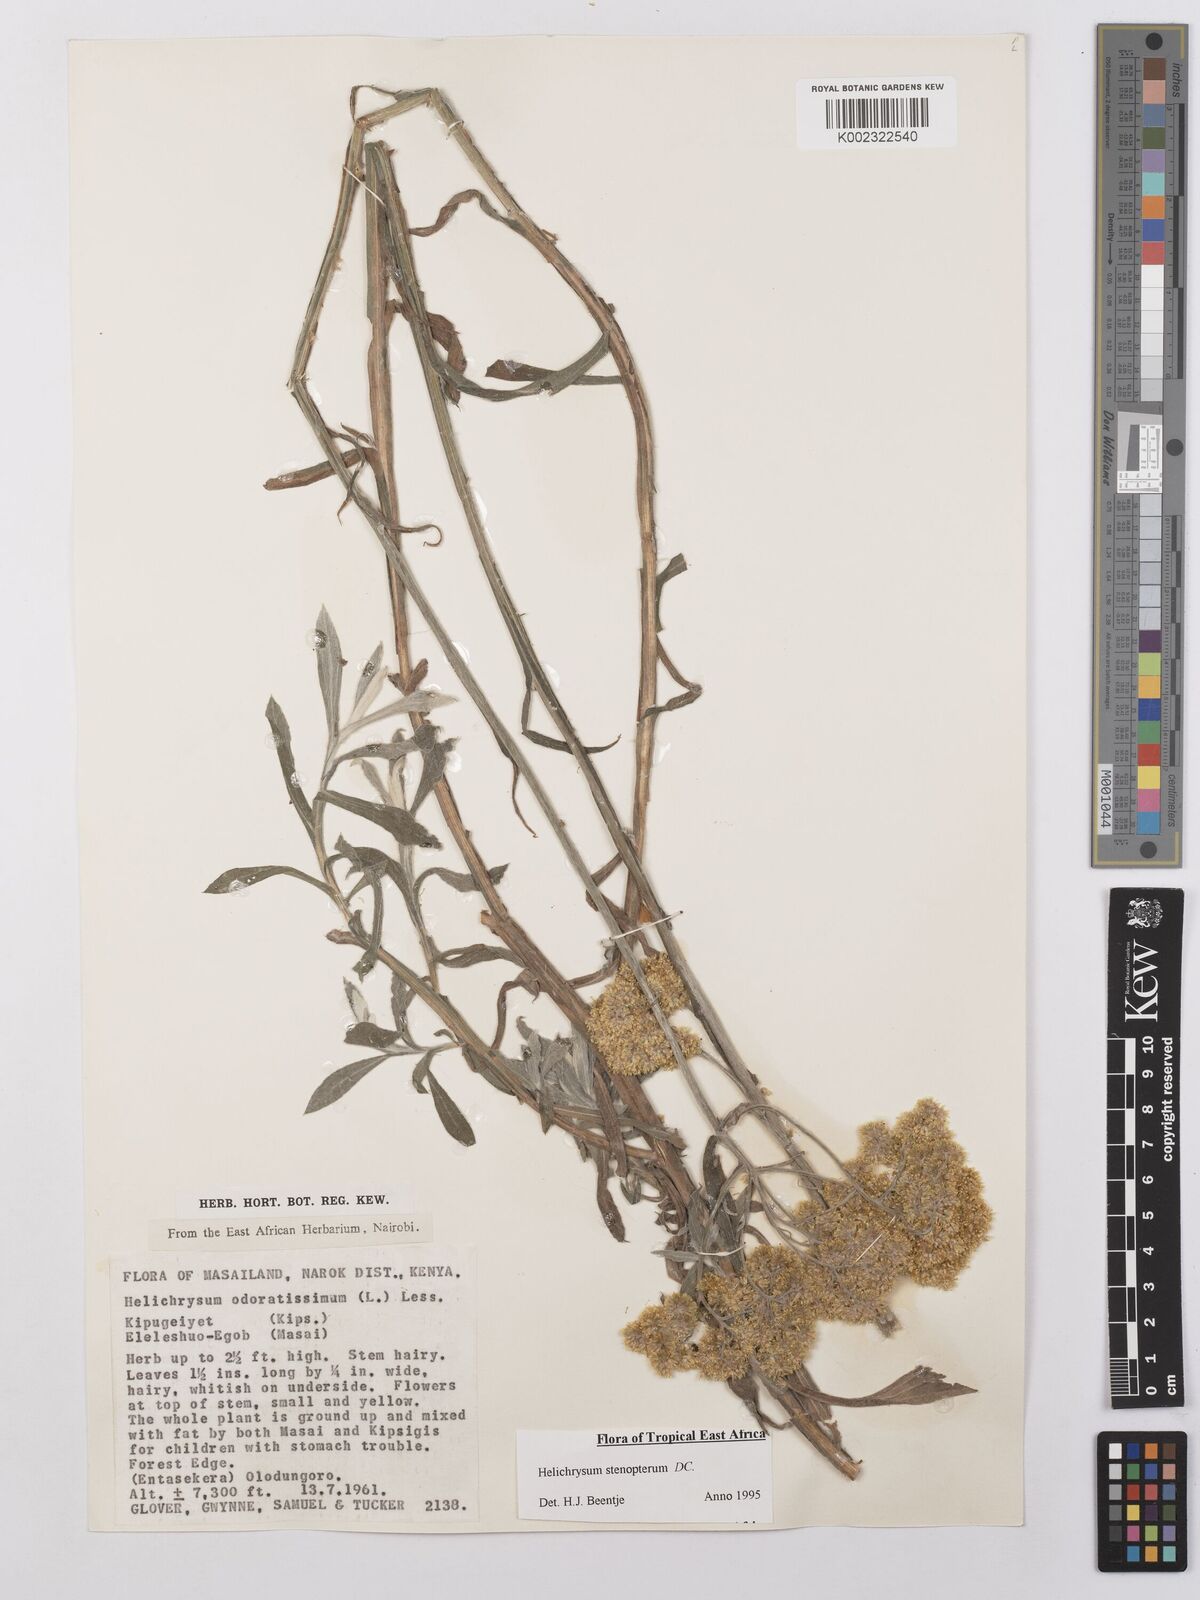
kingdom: Plantae
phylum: Tracheophyta
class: Magnoliopsida
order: Asterales
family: Asteraceae
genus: Helichrysum
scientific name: Helichrysum stenopterum
